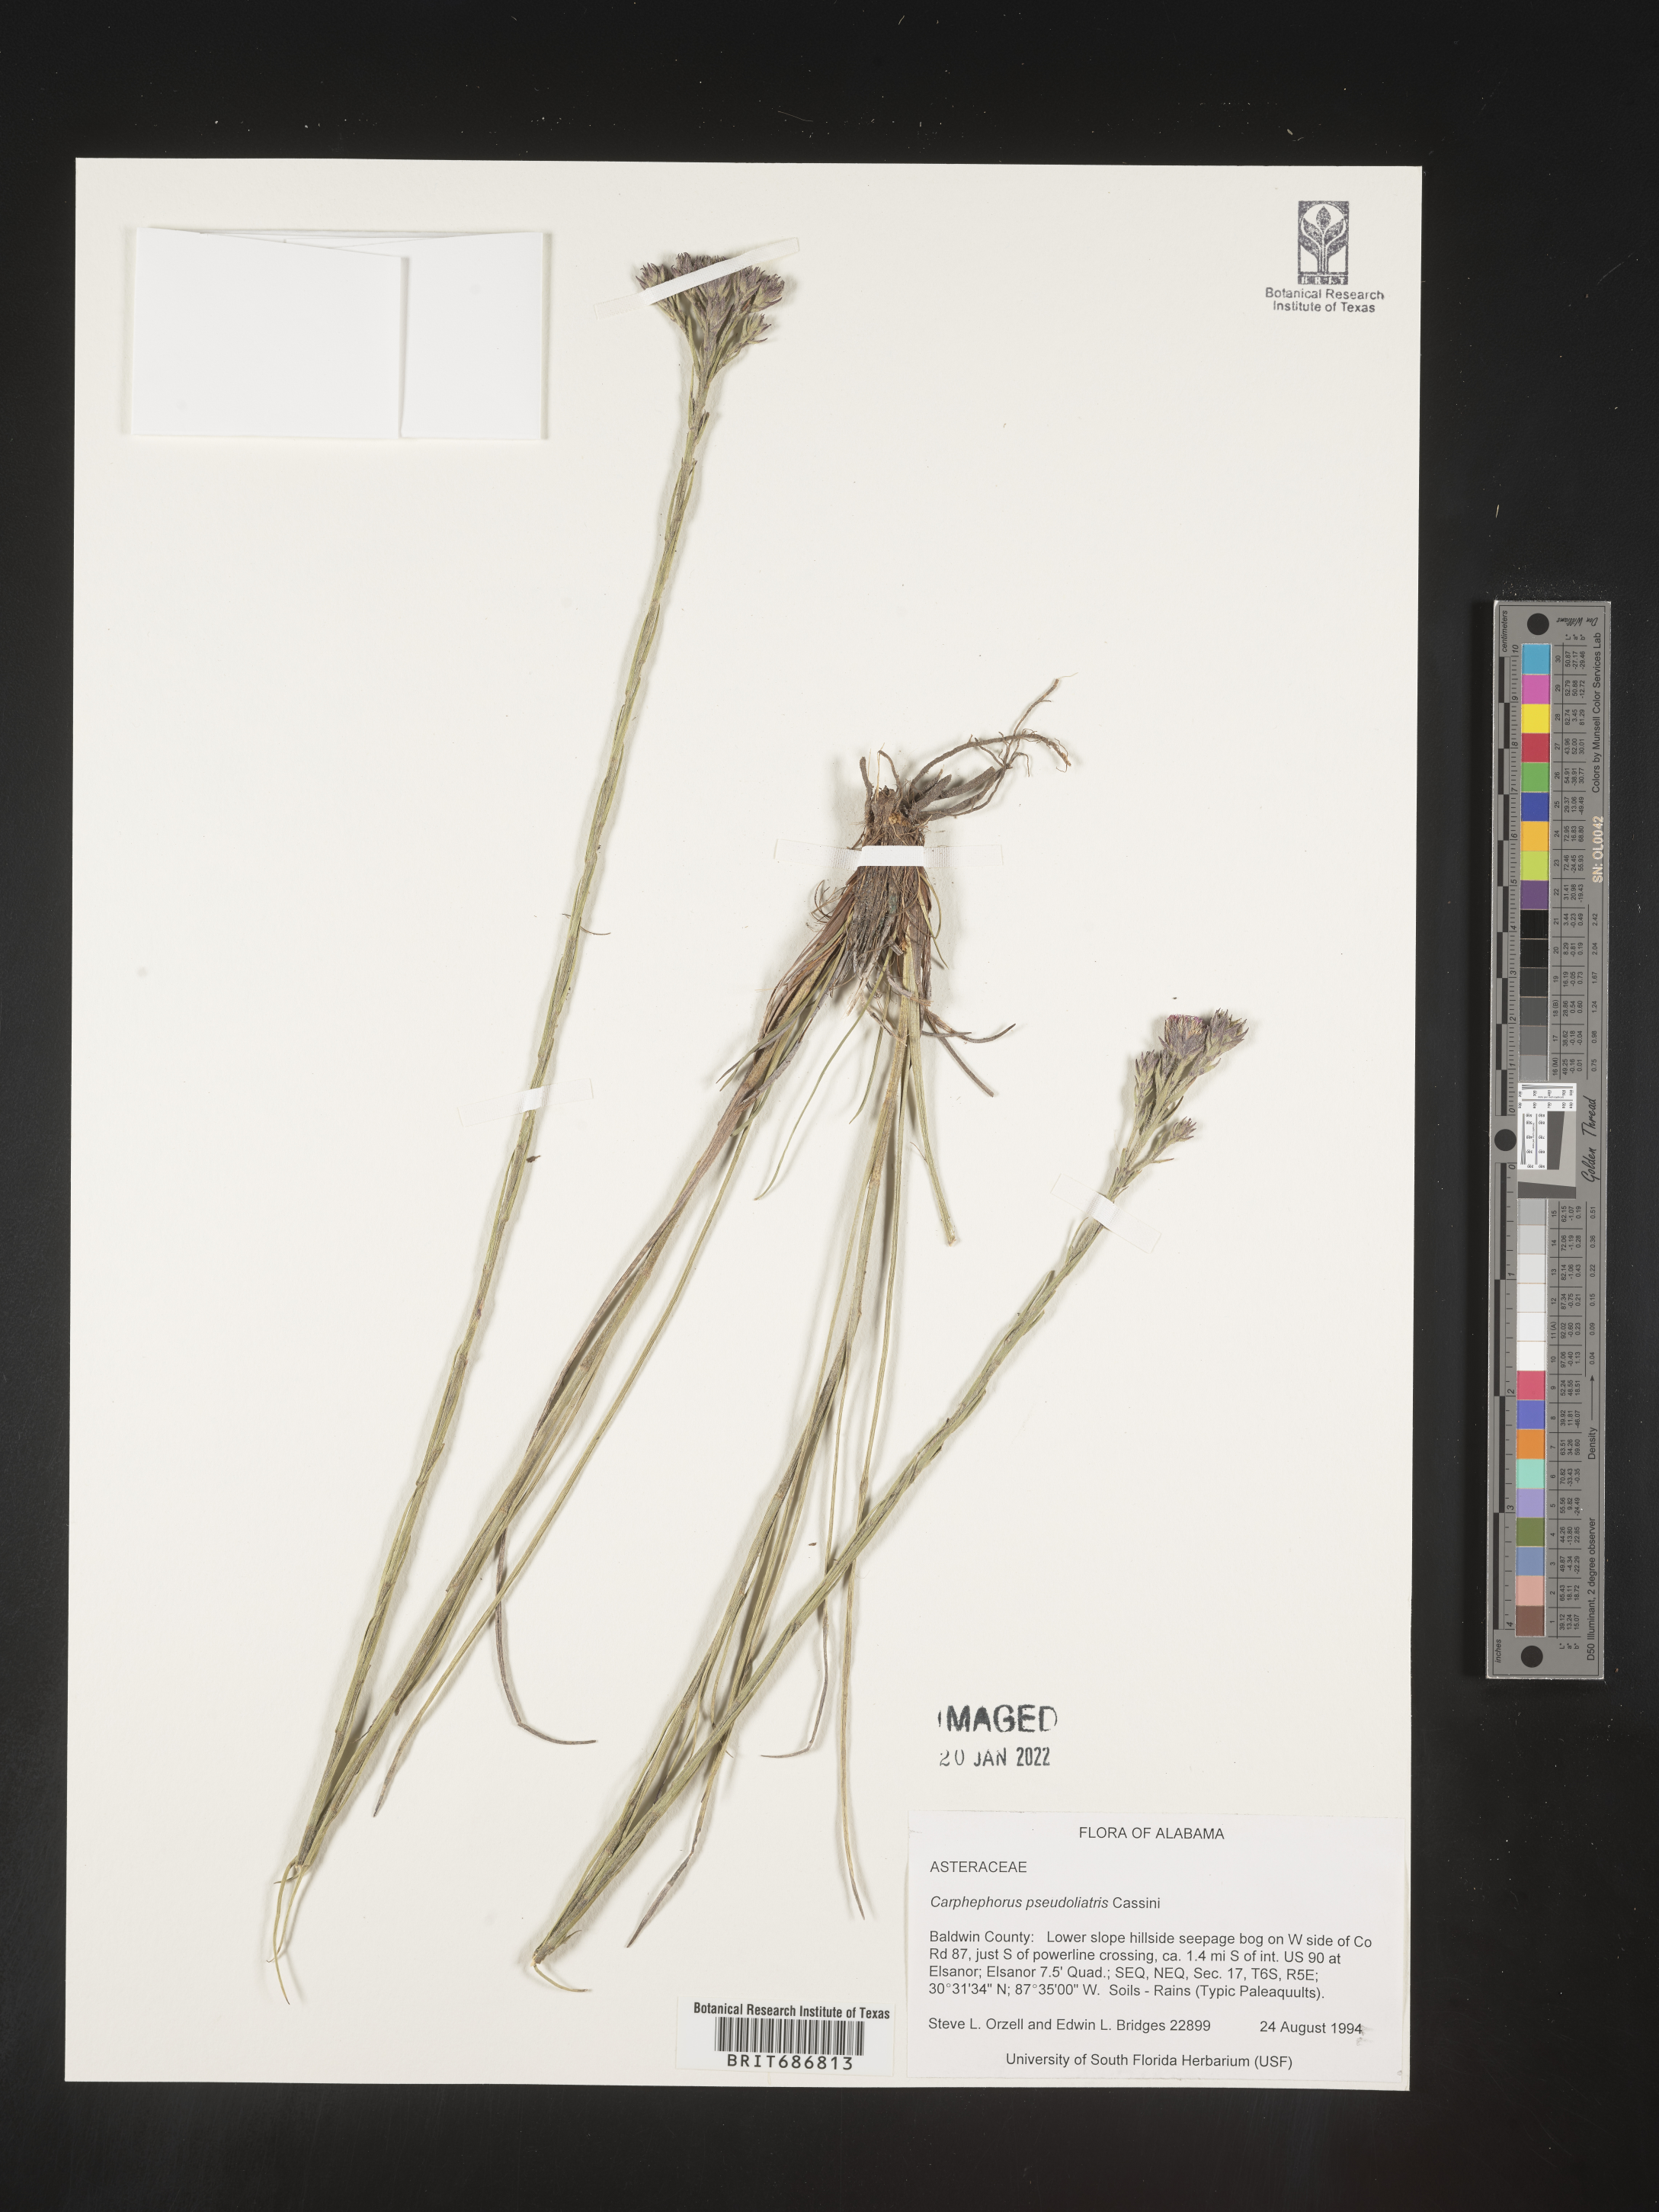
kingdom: Plantae
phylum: Tracheophyta
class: Magnoliopsida
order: Asterales
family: Asteraceae
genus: Carphephorus
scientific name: Carphephorus pseudoliatris
